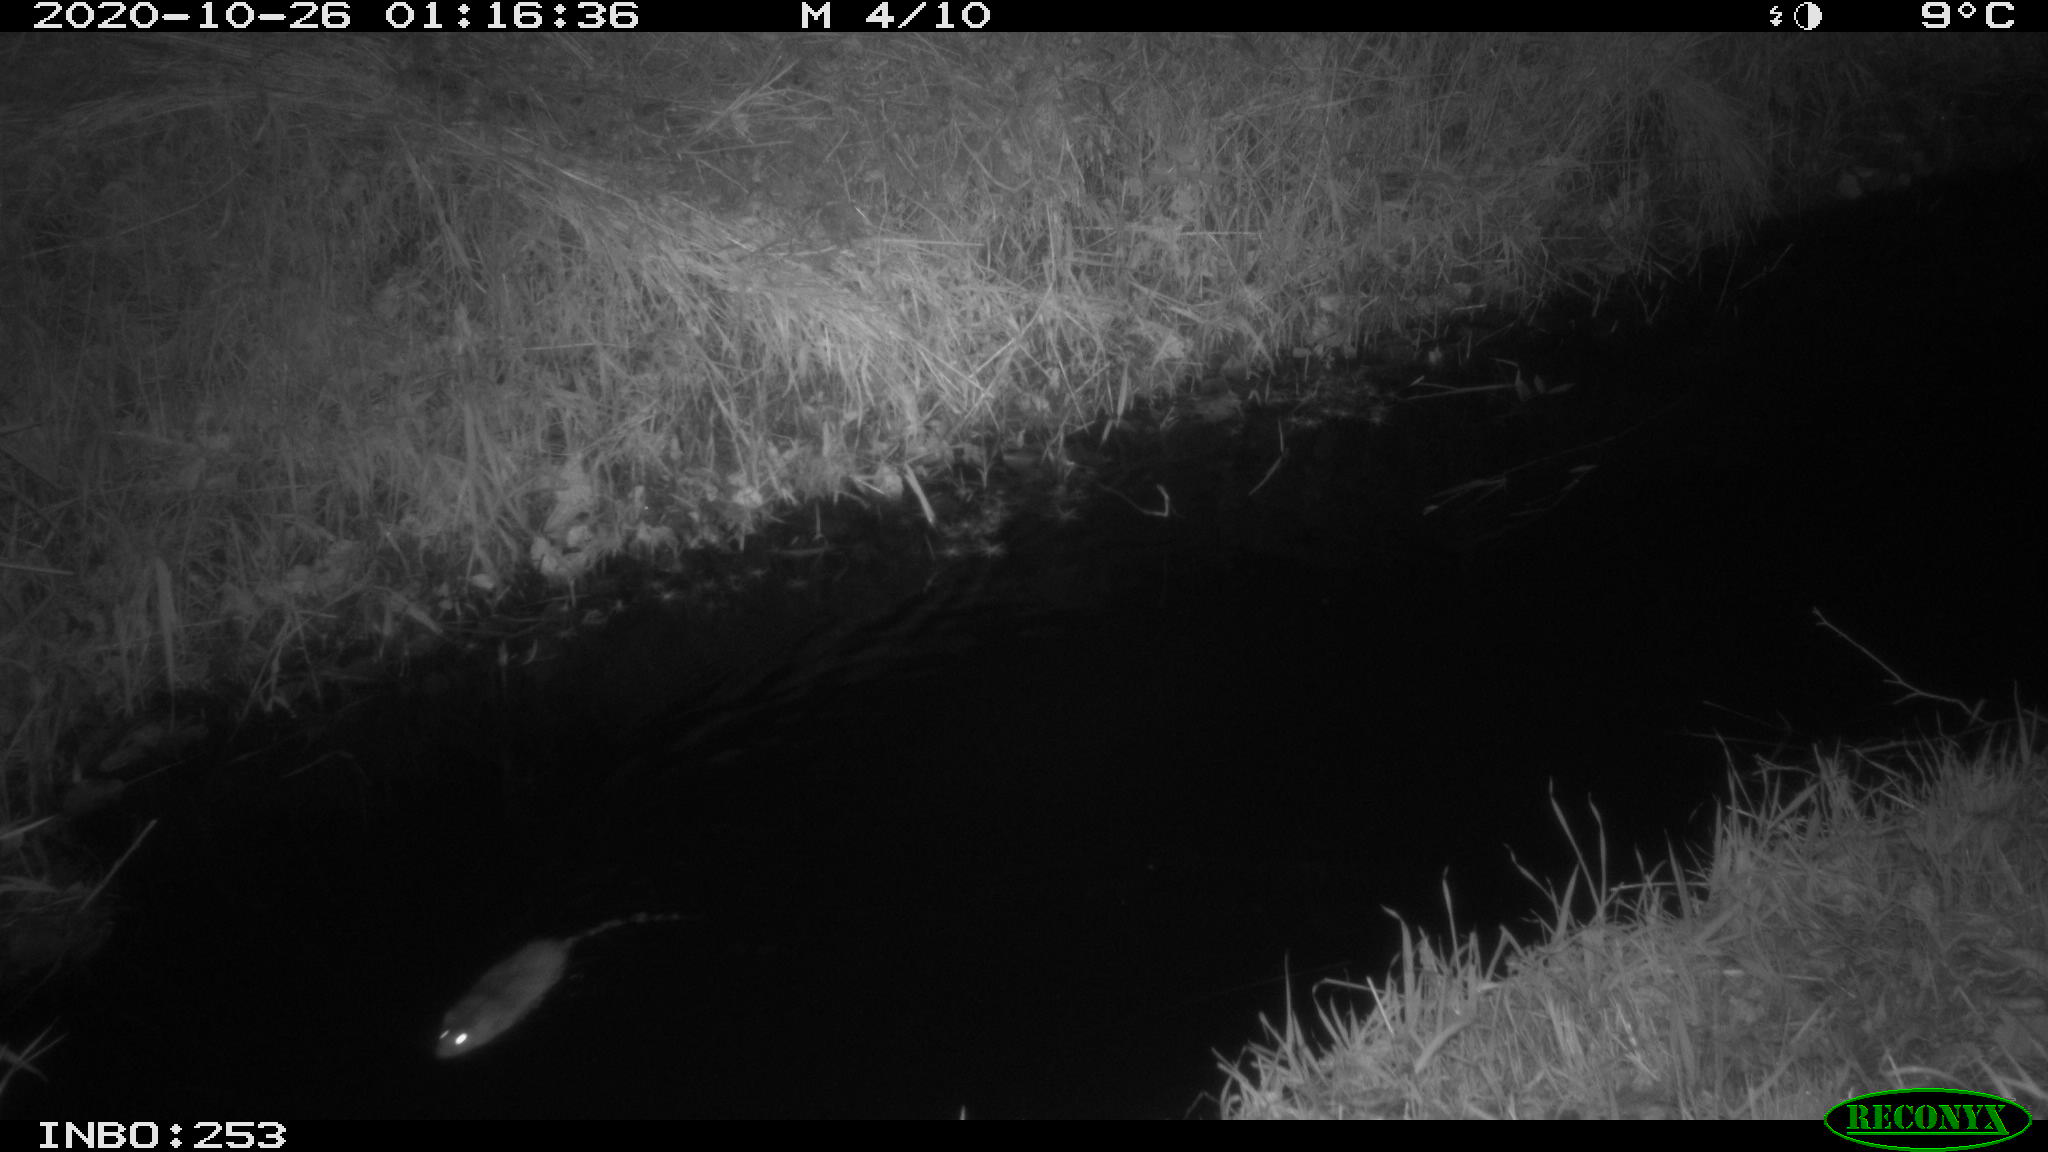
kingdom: Animalia
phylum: Chordata
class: Mammalia
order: Rodentia
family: Muridae
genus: Rattus
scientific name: Rattus norvegicus
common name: Brown rat
